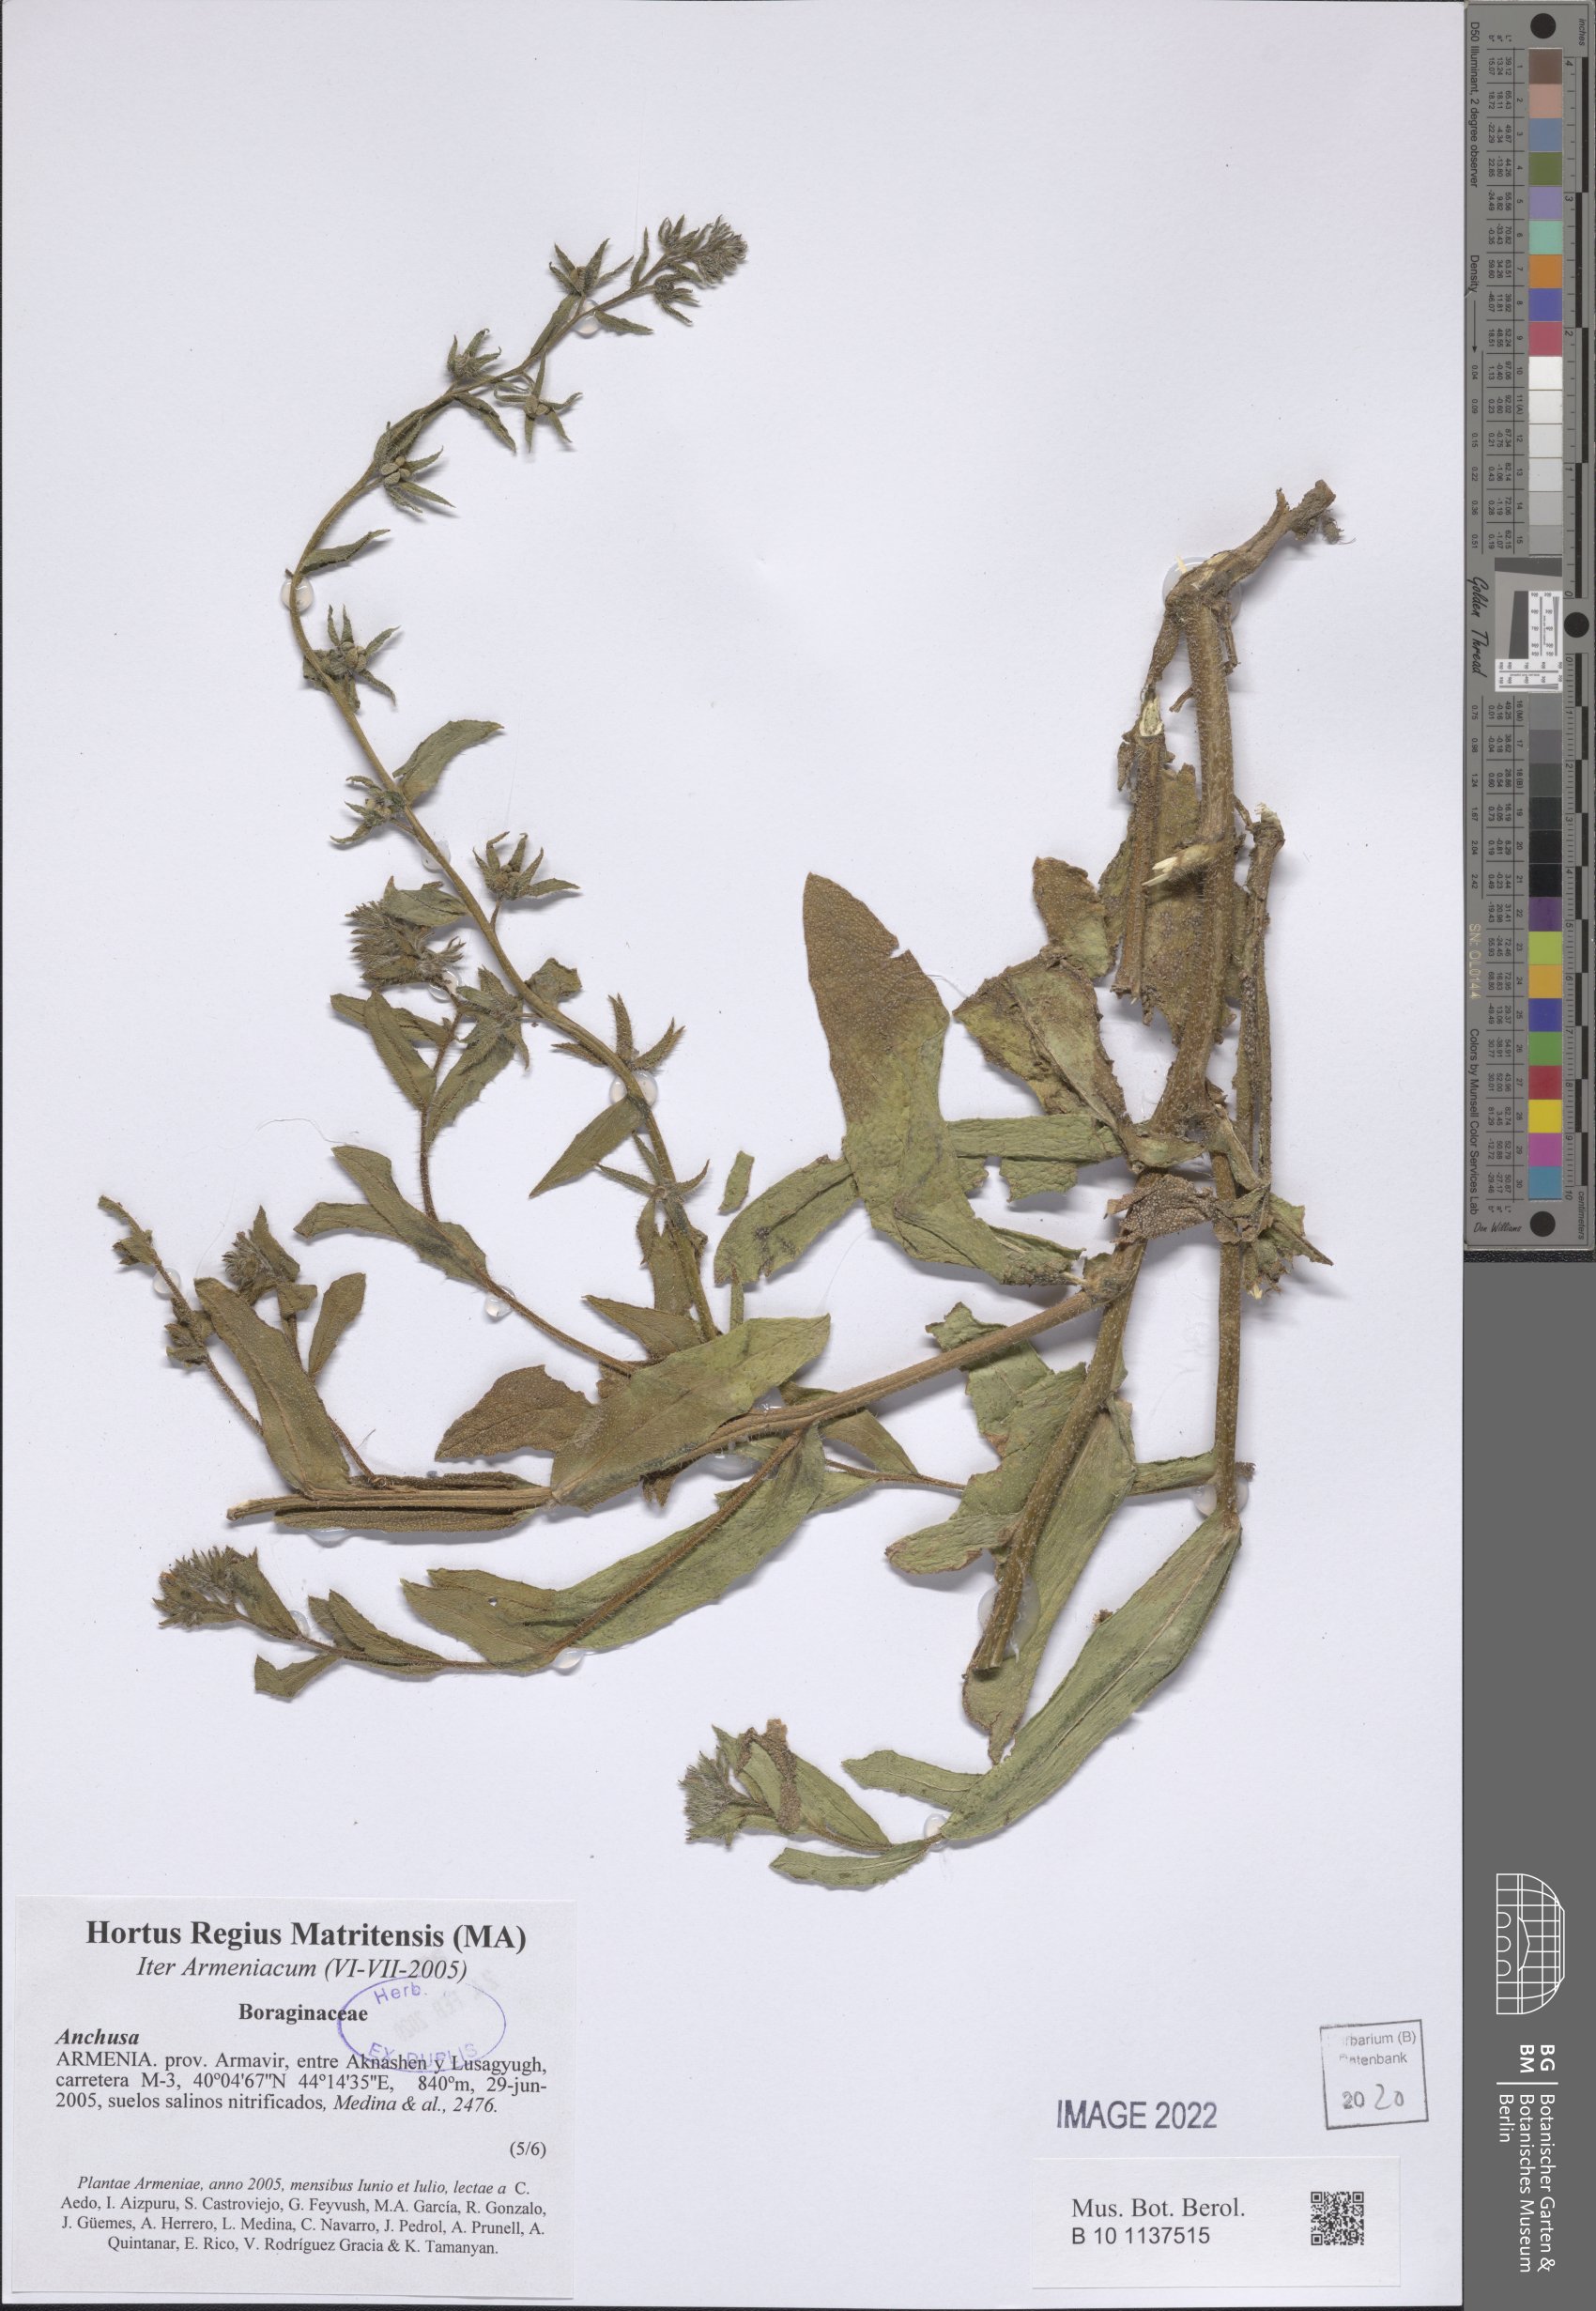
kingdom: Plantae
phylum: Tracheophyta
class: Magnoliopsida
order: Boraginales
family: Boraginaceae
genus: Anchusa
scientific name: Anchusa
